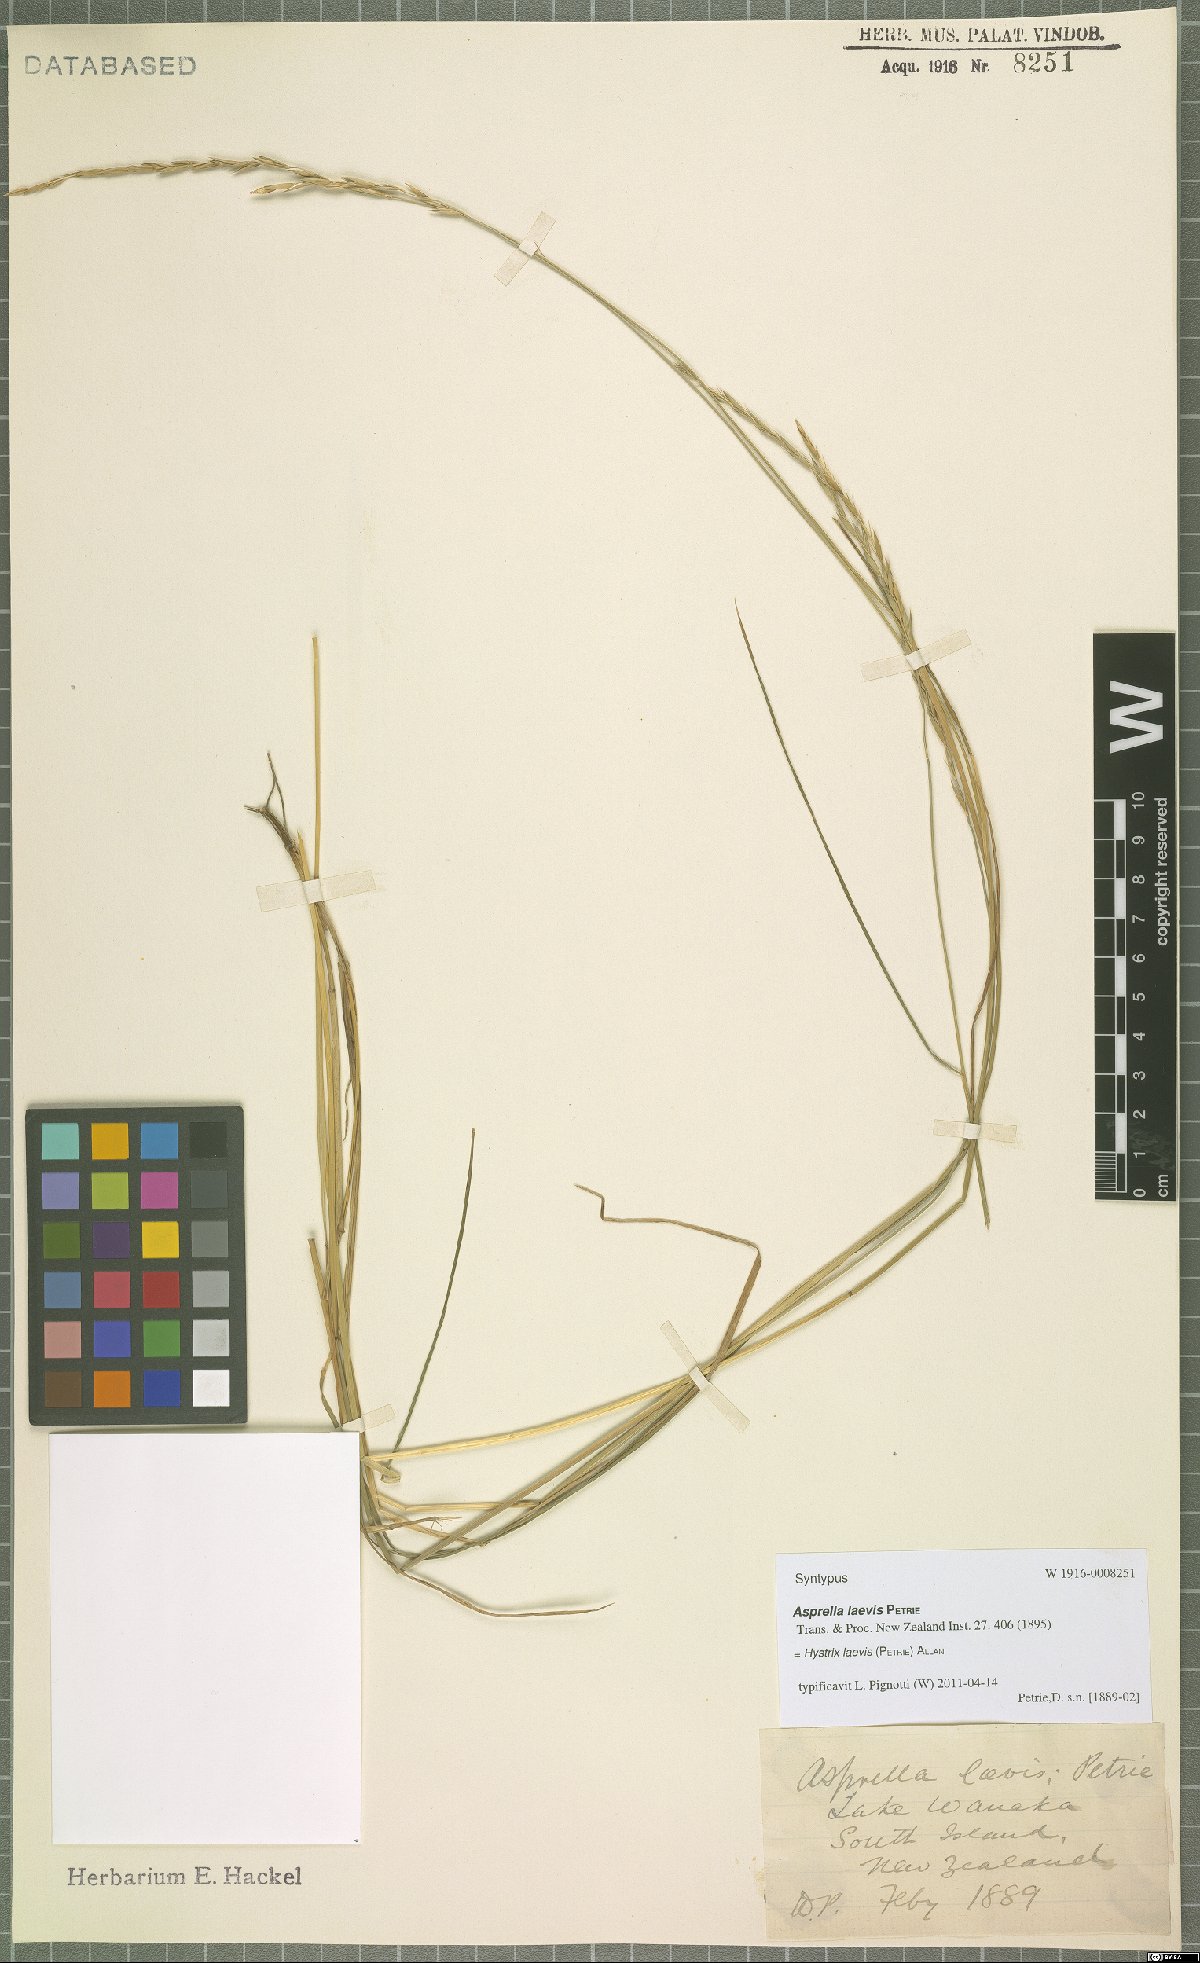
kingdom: Plantae
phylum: Tracheophyta
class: Liliopsida
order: Poales
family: Poaceae
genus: Stenostachys
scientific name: Stenostachys laevis
